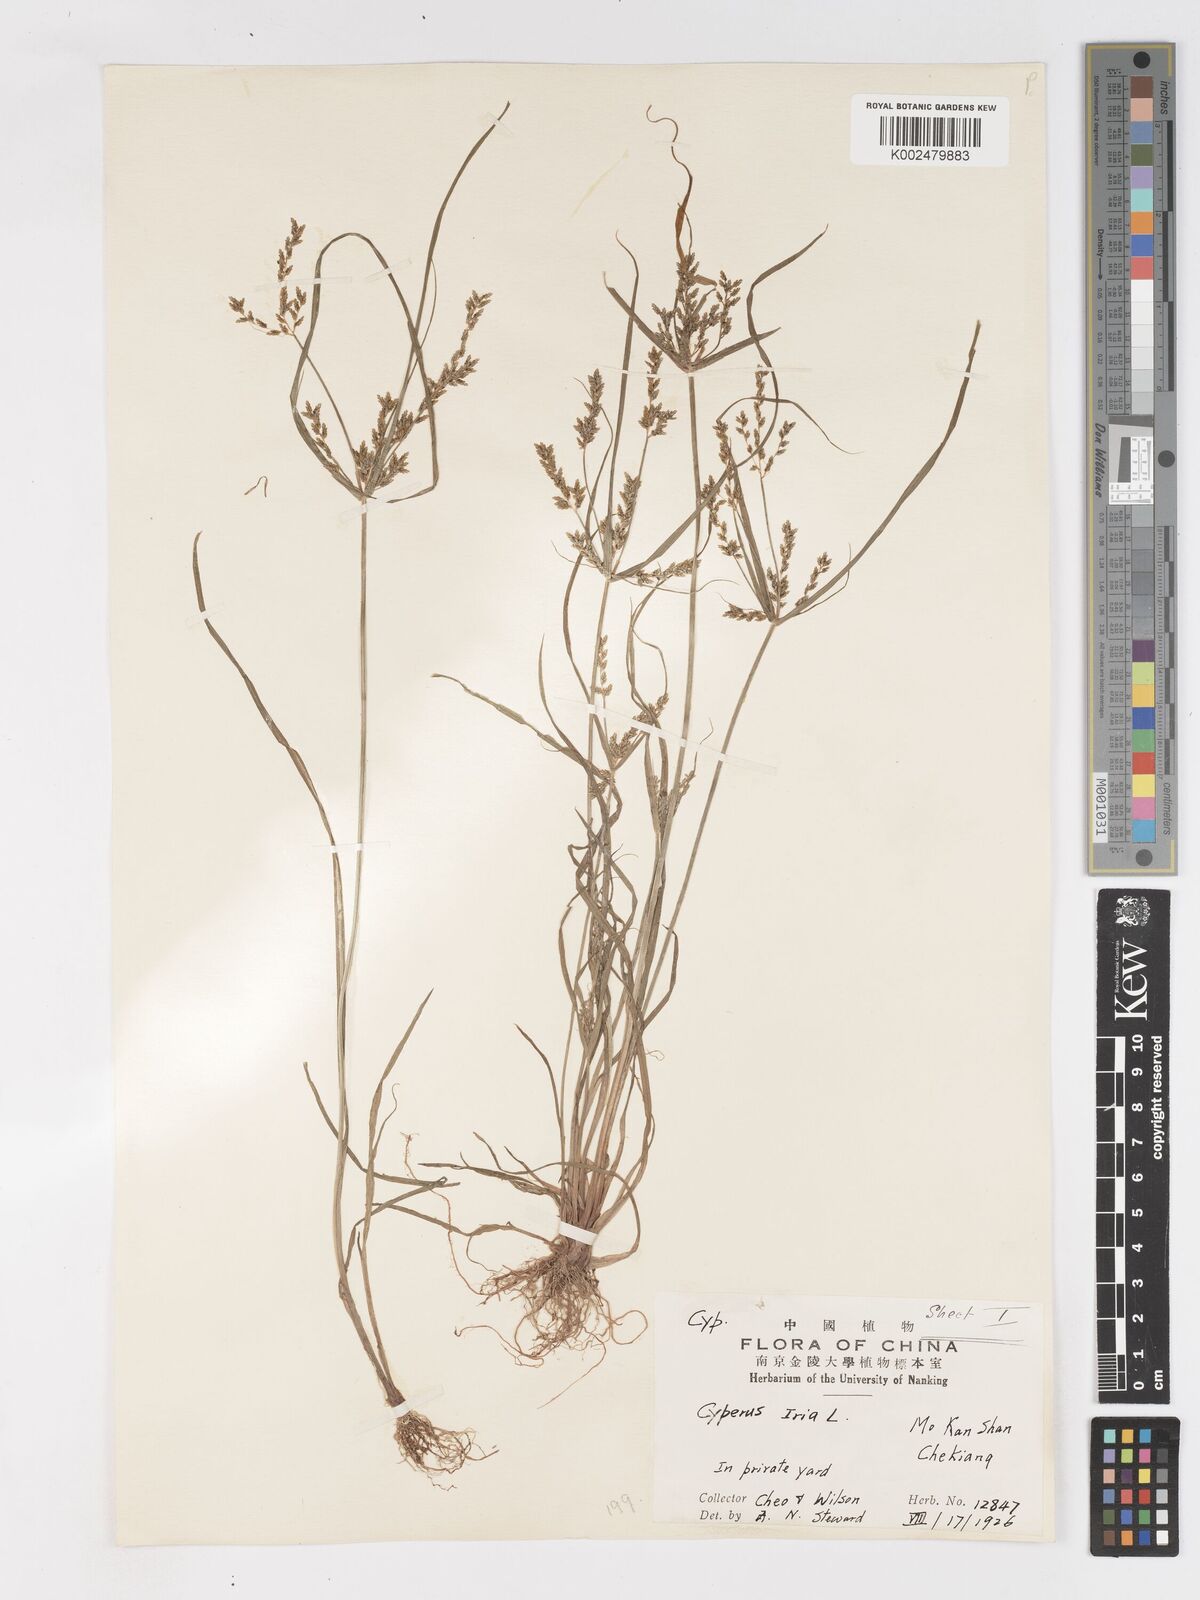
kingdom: Plantae
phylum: Tracheophyta
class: Liliopsida
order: Poales
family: Cyperaceae
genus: Cyperus
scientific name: Cyperus iria
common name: Ricefield flatsedge
